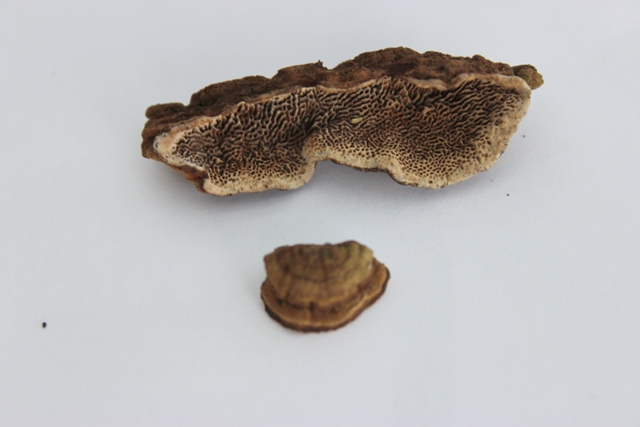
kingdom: Fungi
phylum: Basidiomycota
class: Agaricomycetes
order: Polyporales
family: Polyporaceae
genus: Podofomes
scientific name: Podofomes mollis
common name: blød begporesvamp
